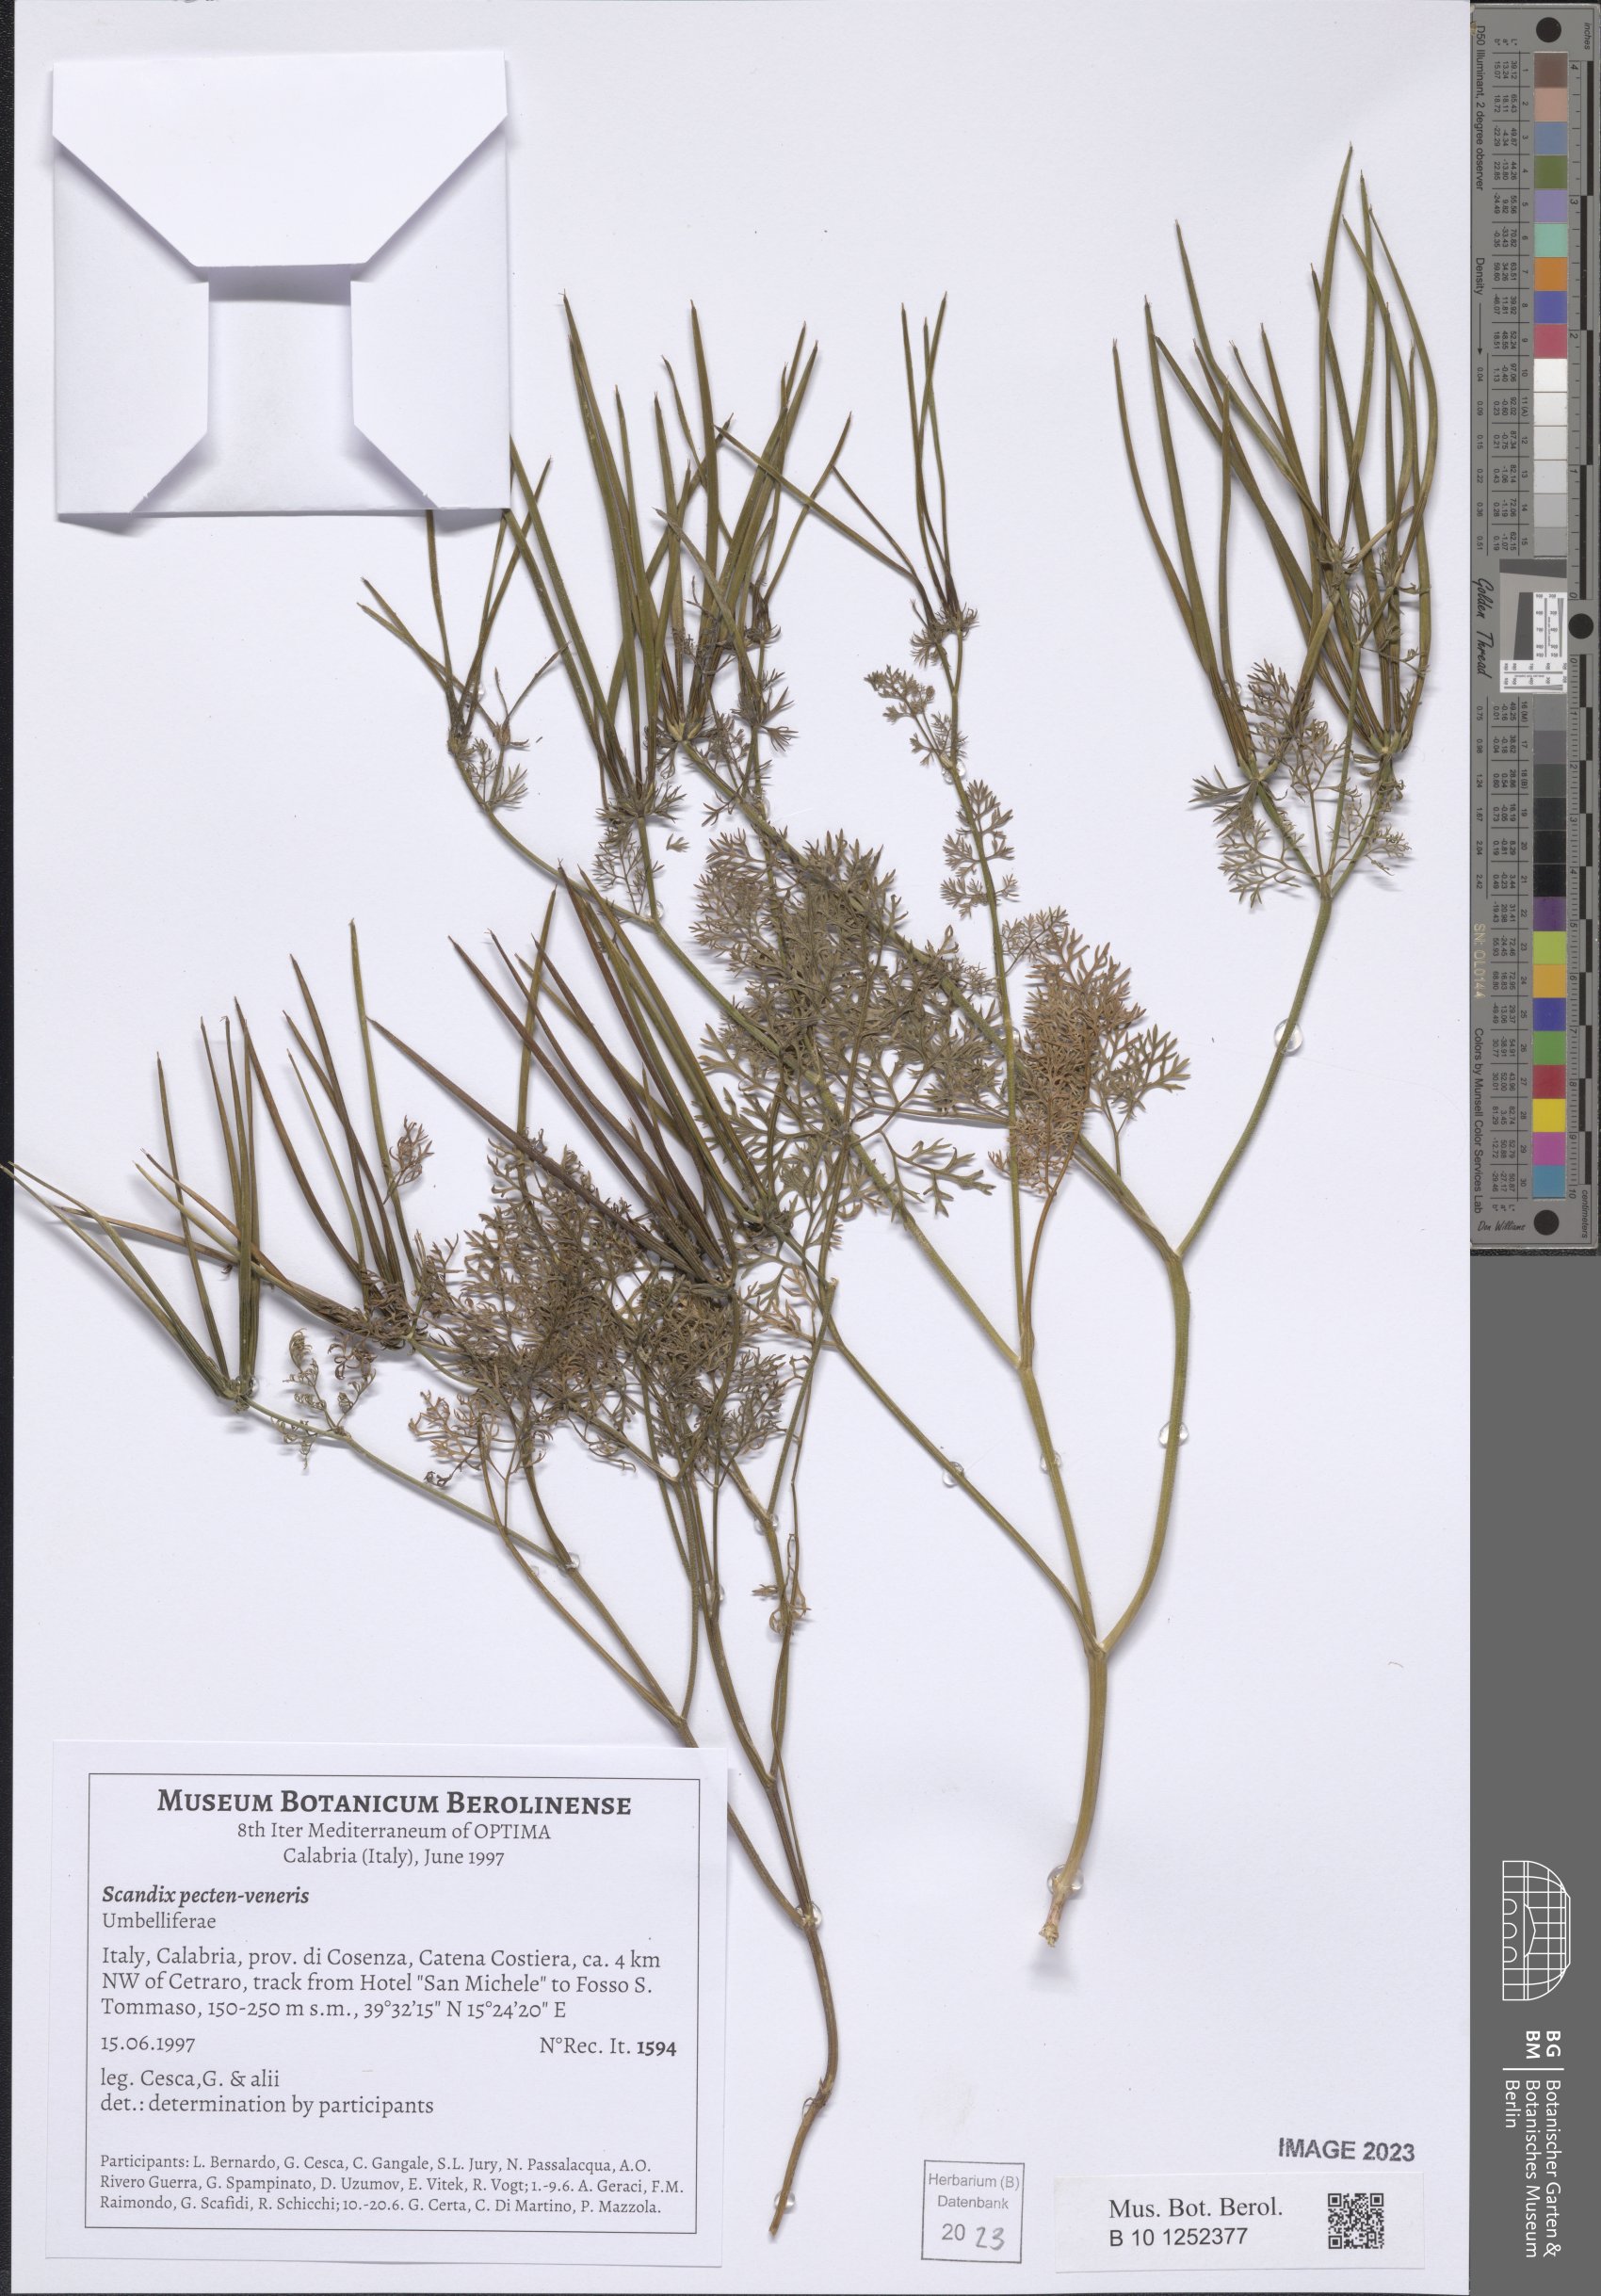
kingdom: Plantae
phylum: Tracheophyta
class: Magnoliopsida
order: Apiales
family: Apiaceae
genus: Scandix
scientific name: Scandix pecten-veneris
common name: Shepherd's-needle
